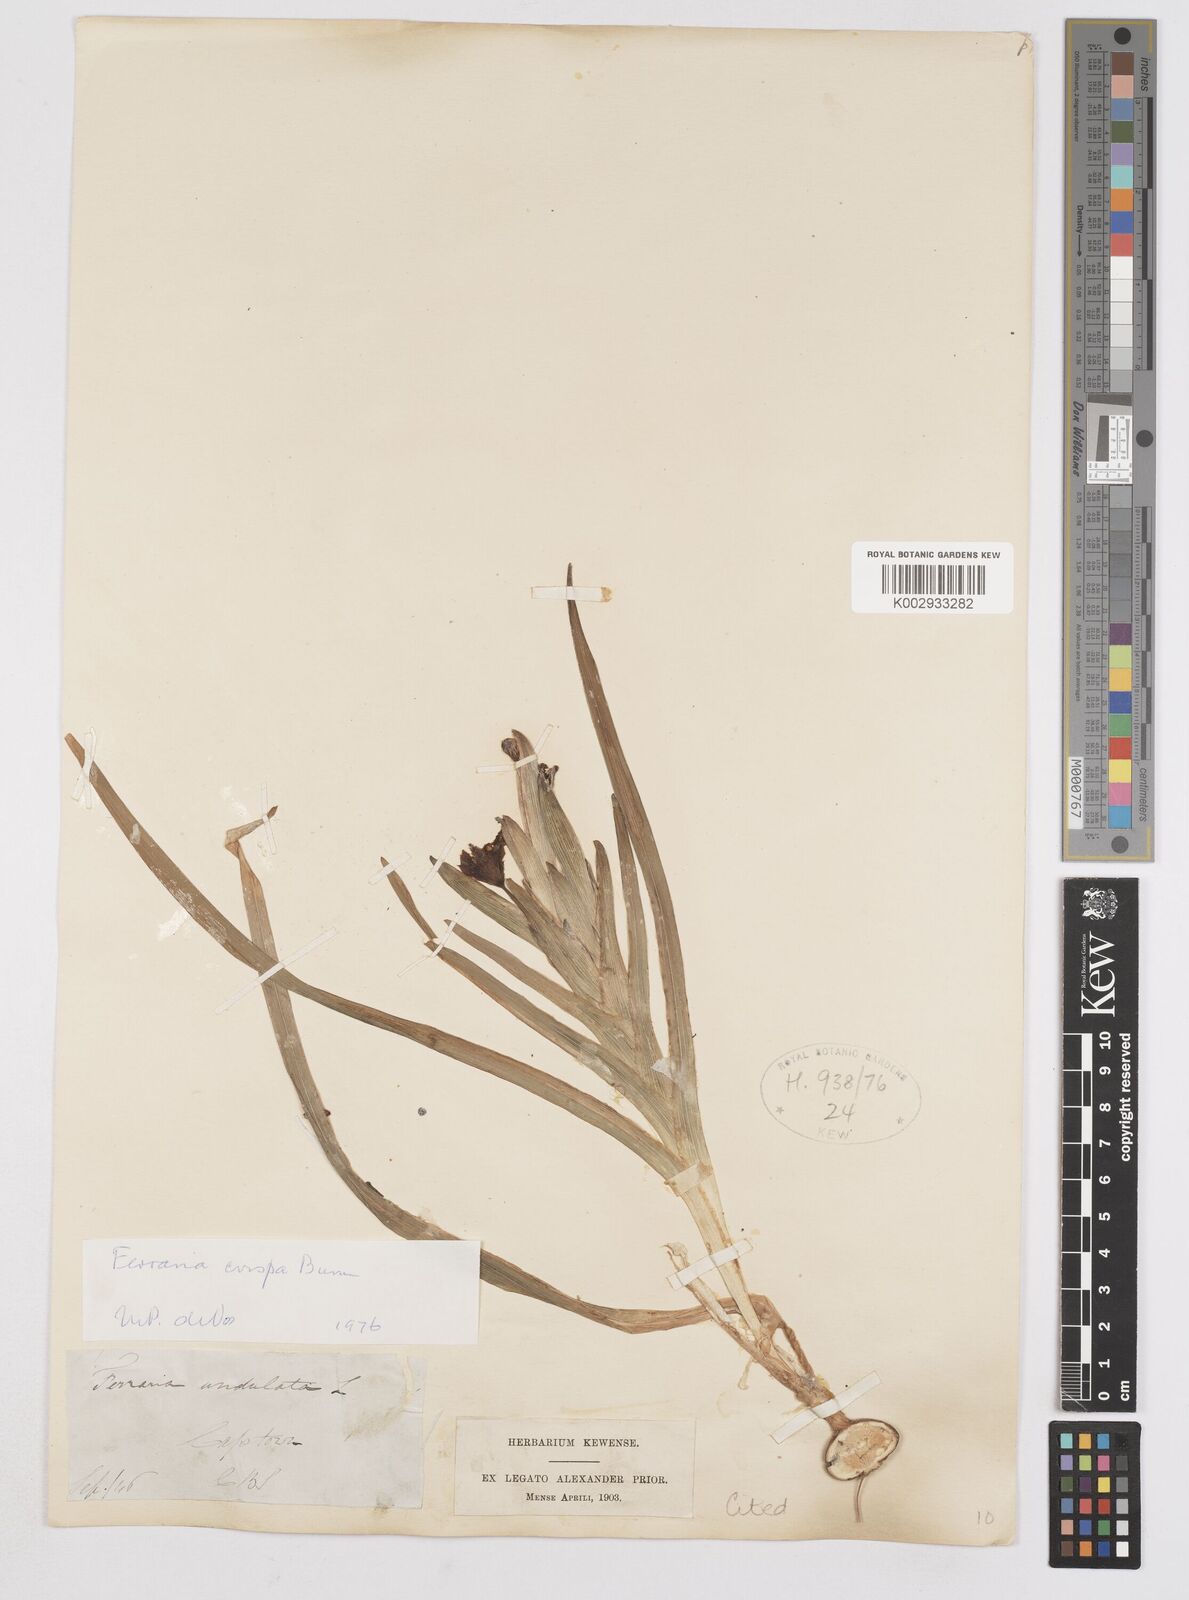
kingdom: Plantae
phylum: Tracheophyta
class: Liliopsida
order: Asparagales
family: Iridaceae
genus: Ferraria
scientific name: Ferraria crispa
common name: Black-flag
